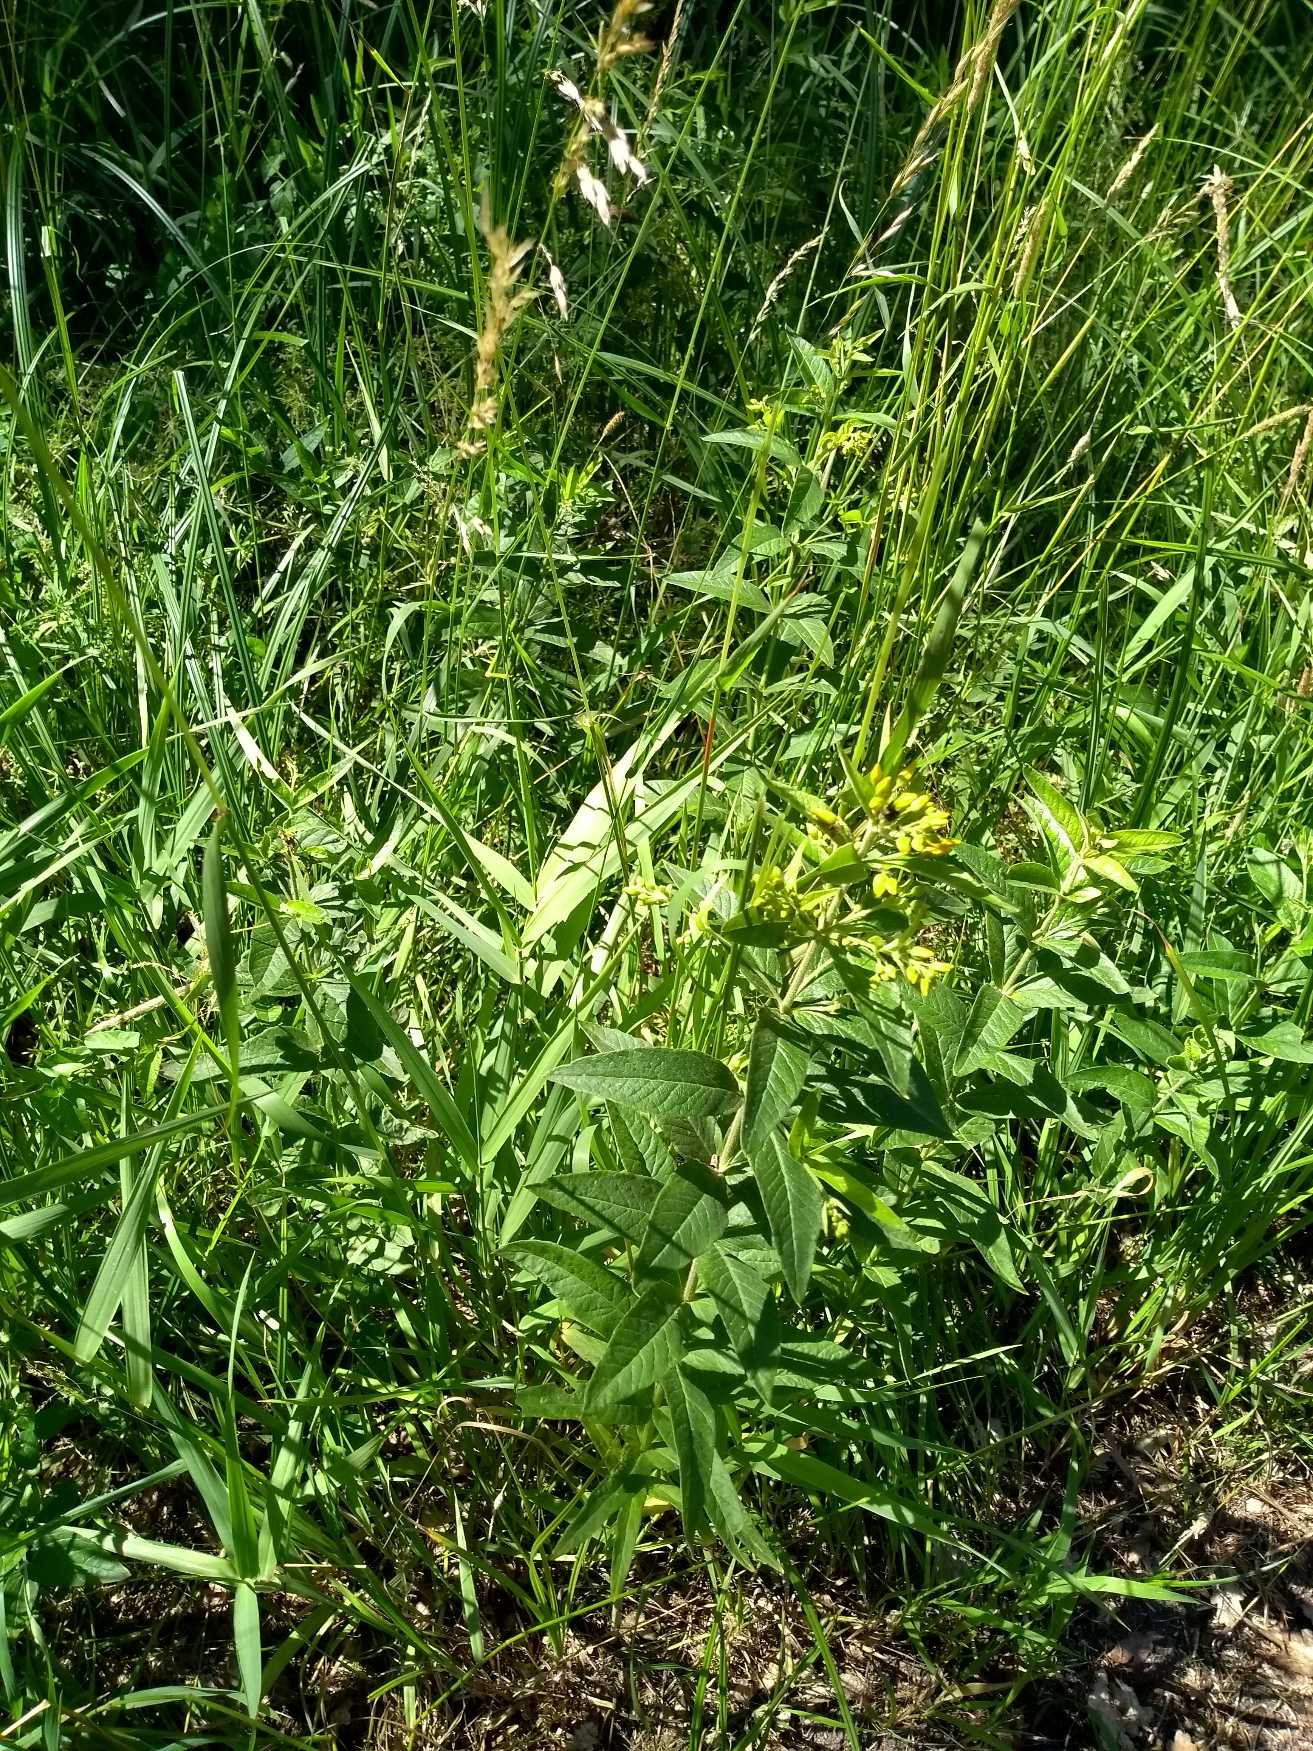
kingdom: Plantae
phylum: Tracheophyta
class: Magnoliopsida
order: Ericales
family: Primulaceae
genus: Lysimachia
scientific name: Lysimachia vulgaris
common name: Almindelig fredløs
